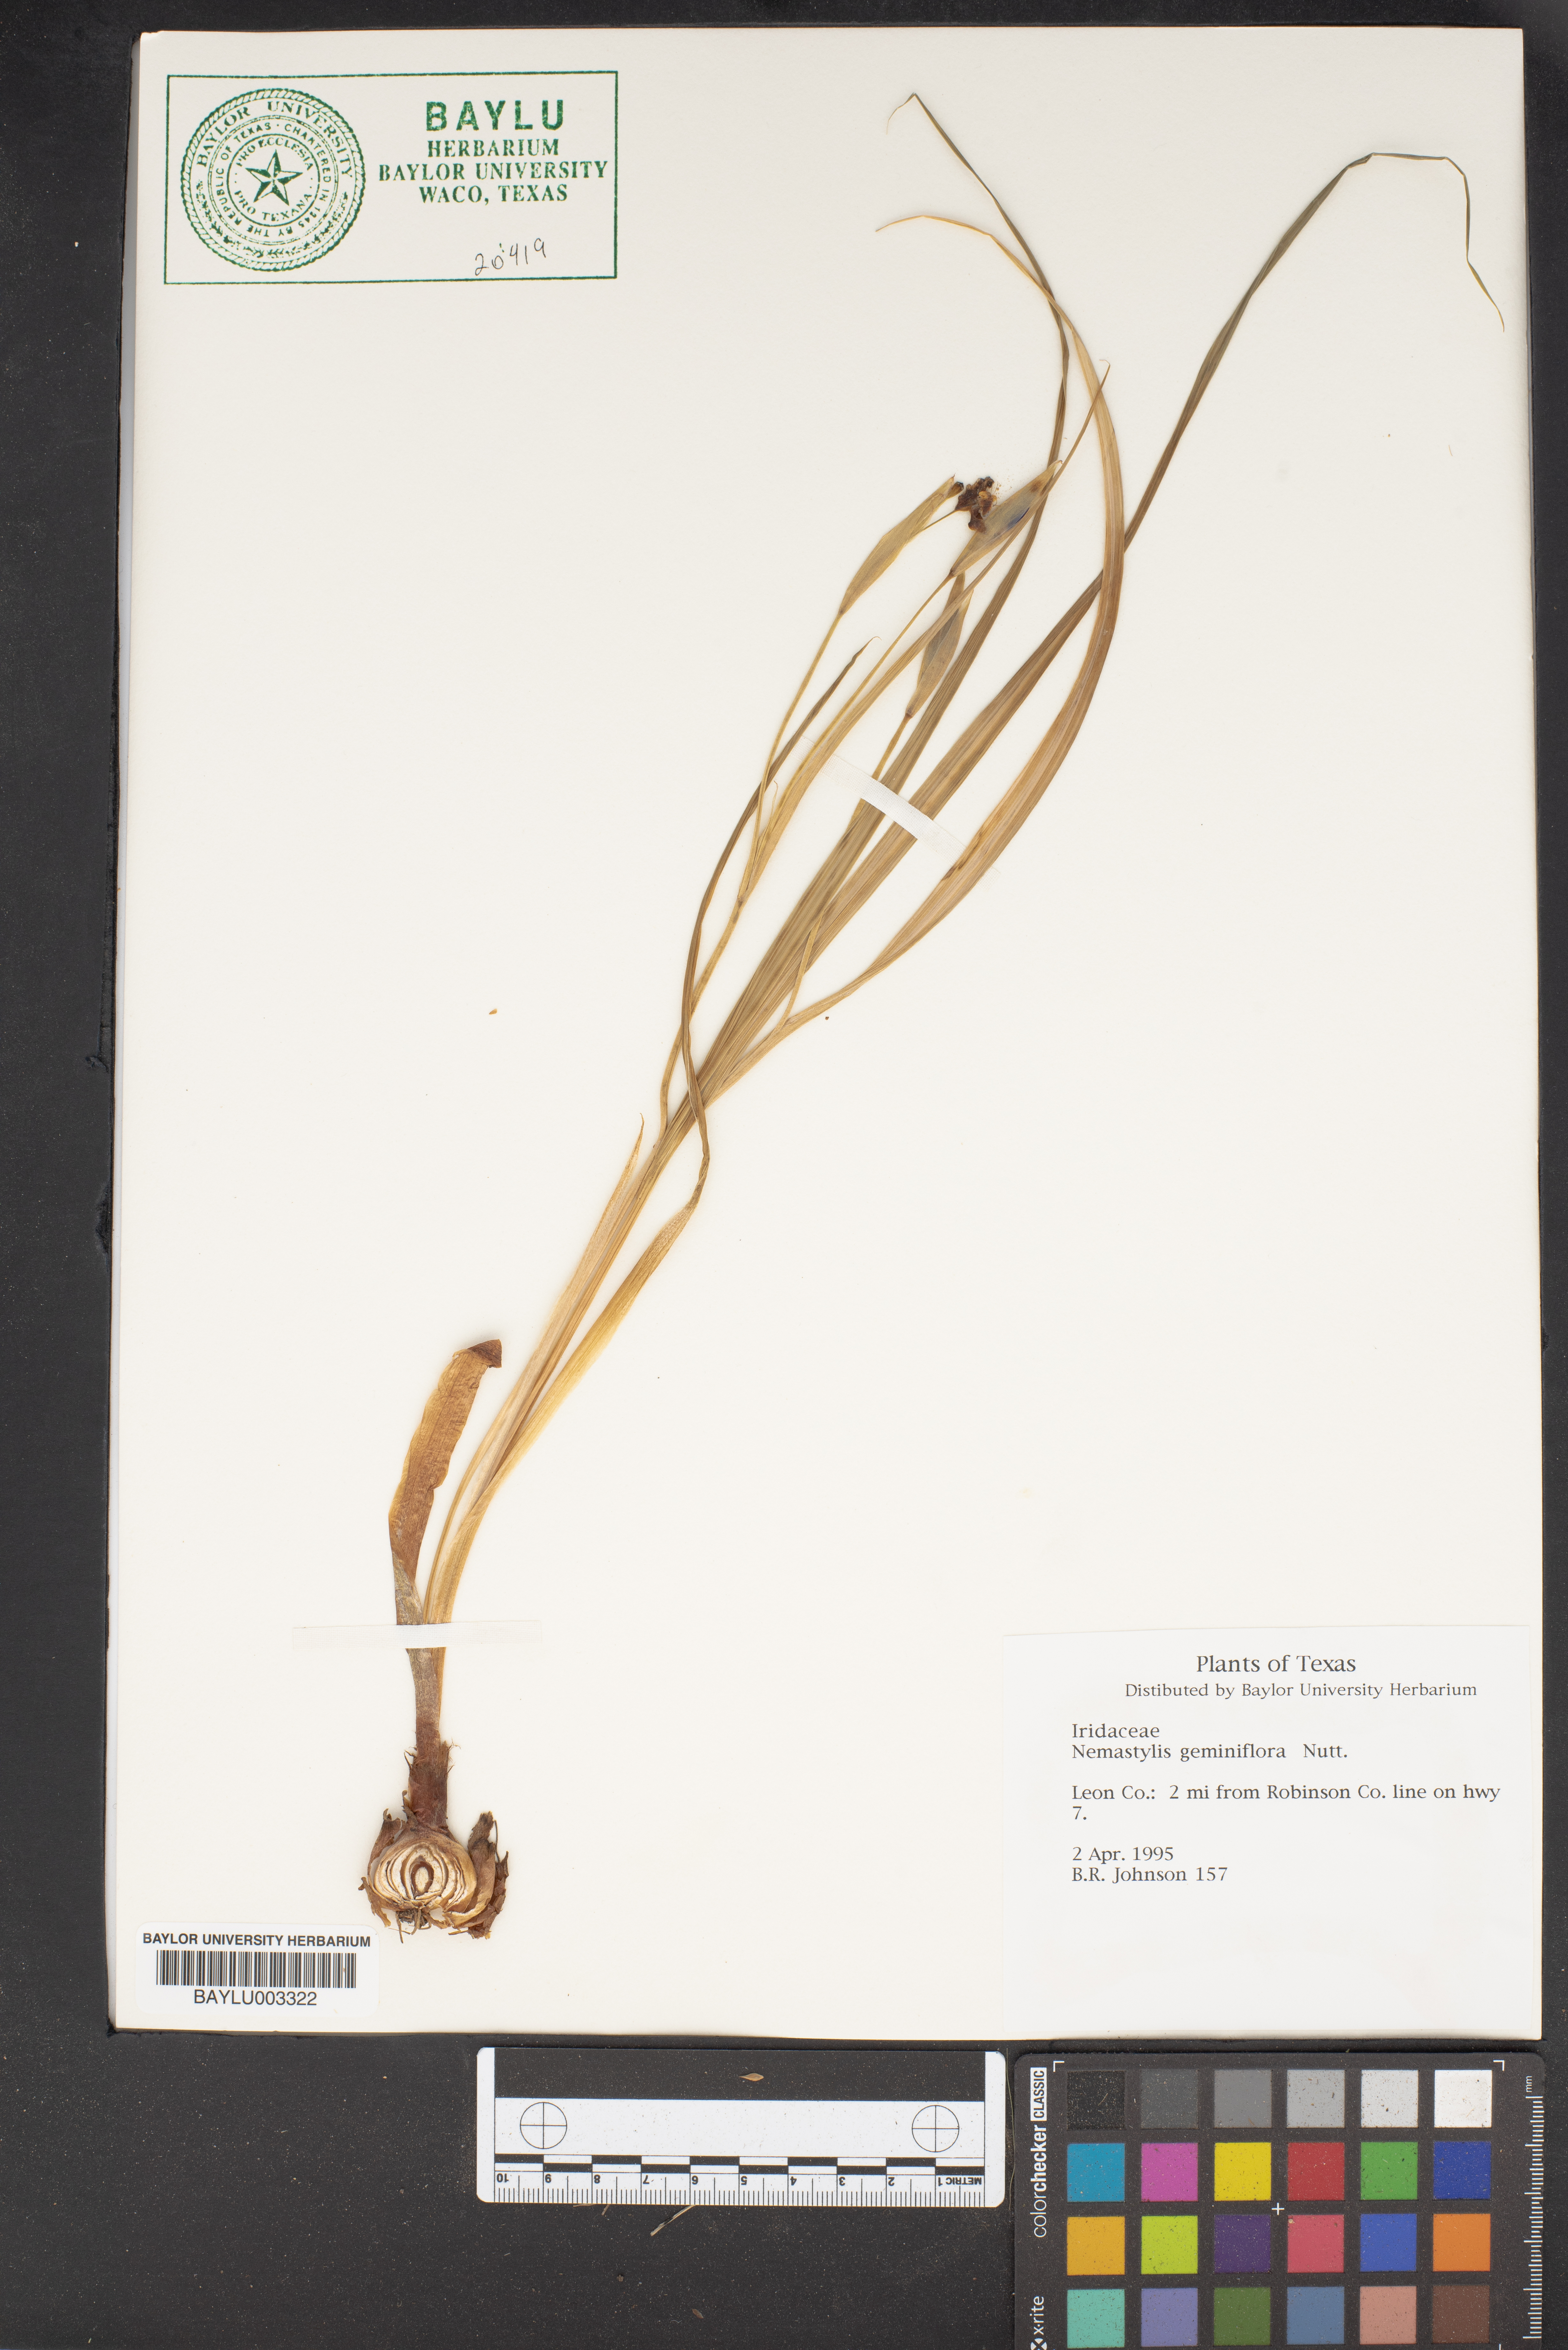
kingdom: Plantae
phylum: Tracheophyta
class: Liliopsida
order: Asparagales
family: Iridaceae
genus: Nemastylis
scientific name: Nemastylis geminiflora
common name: Prairie celestial
